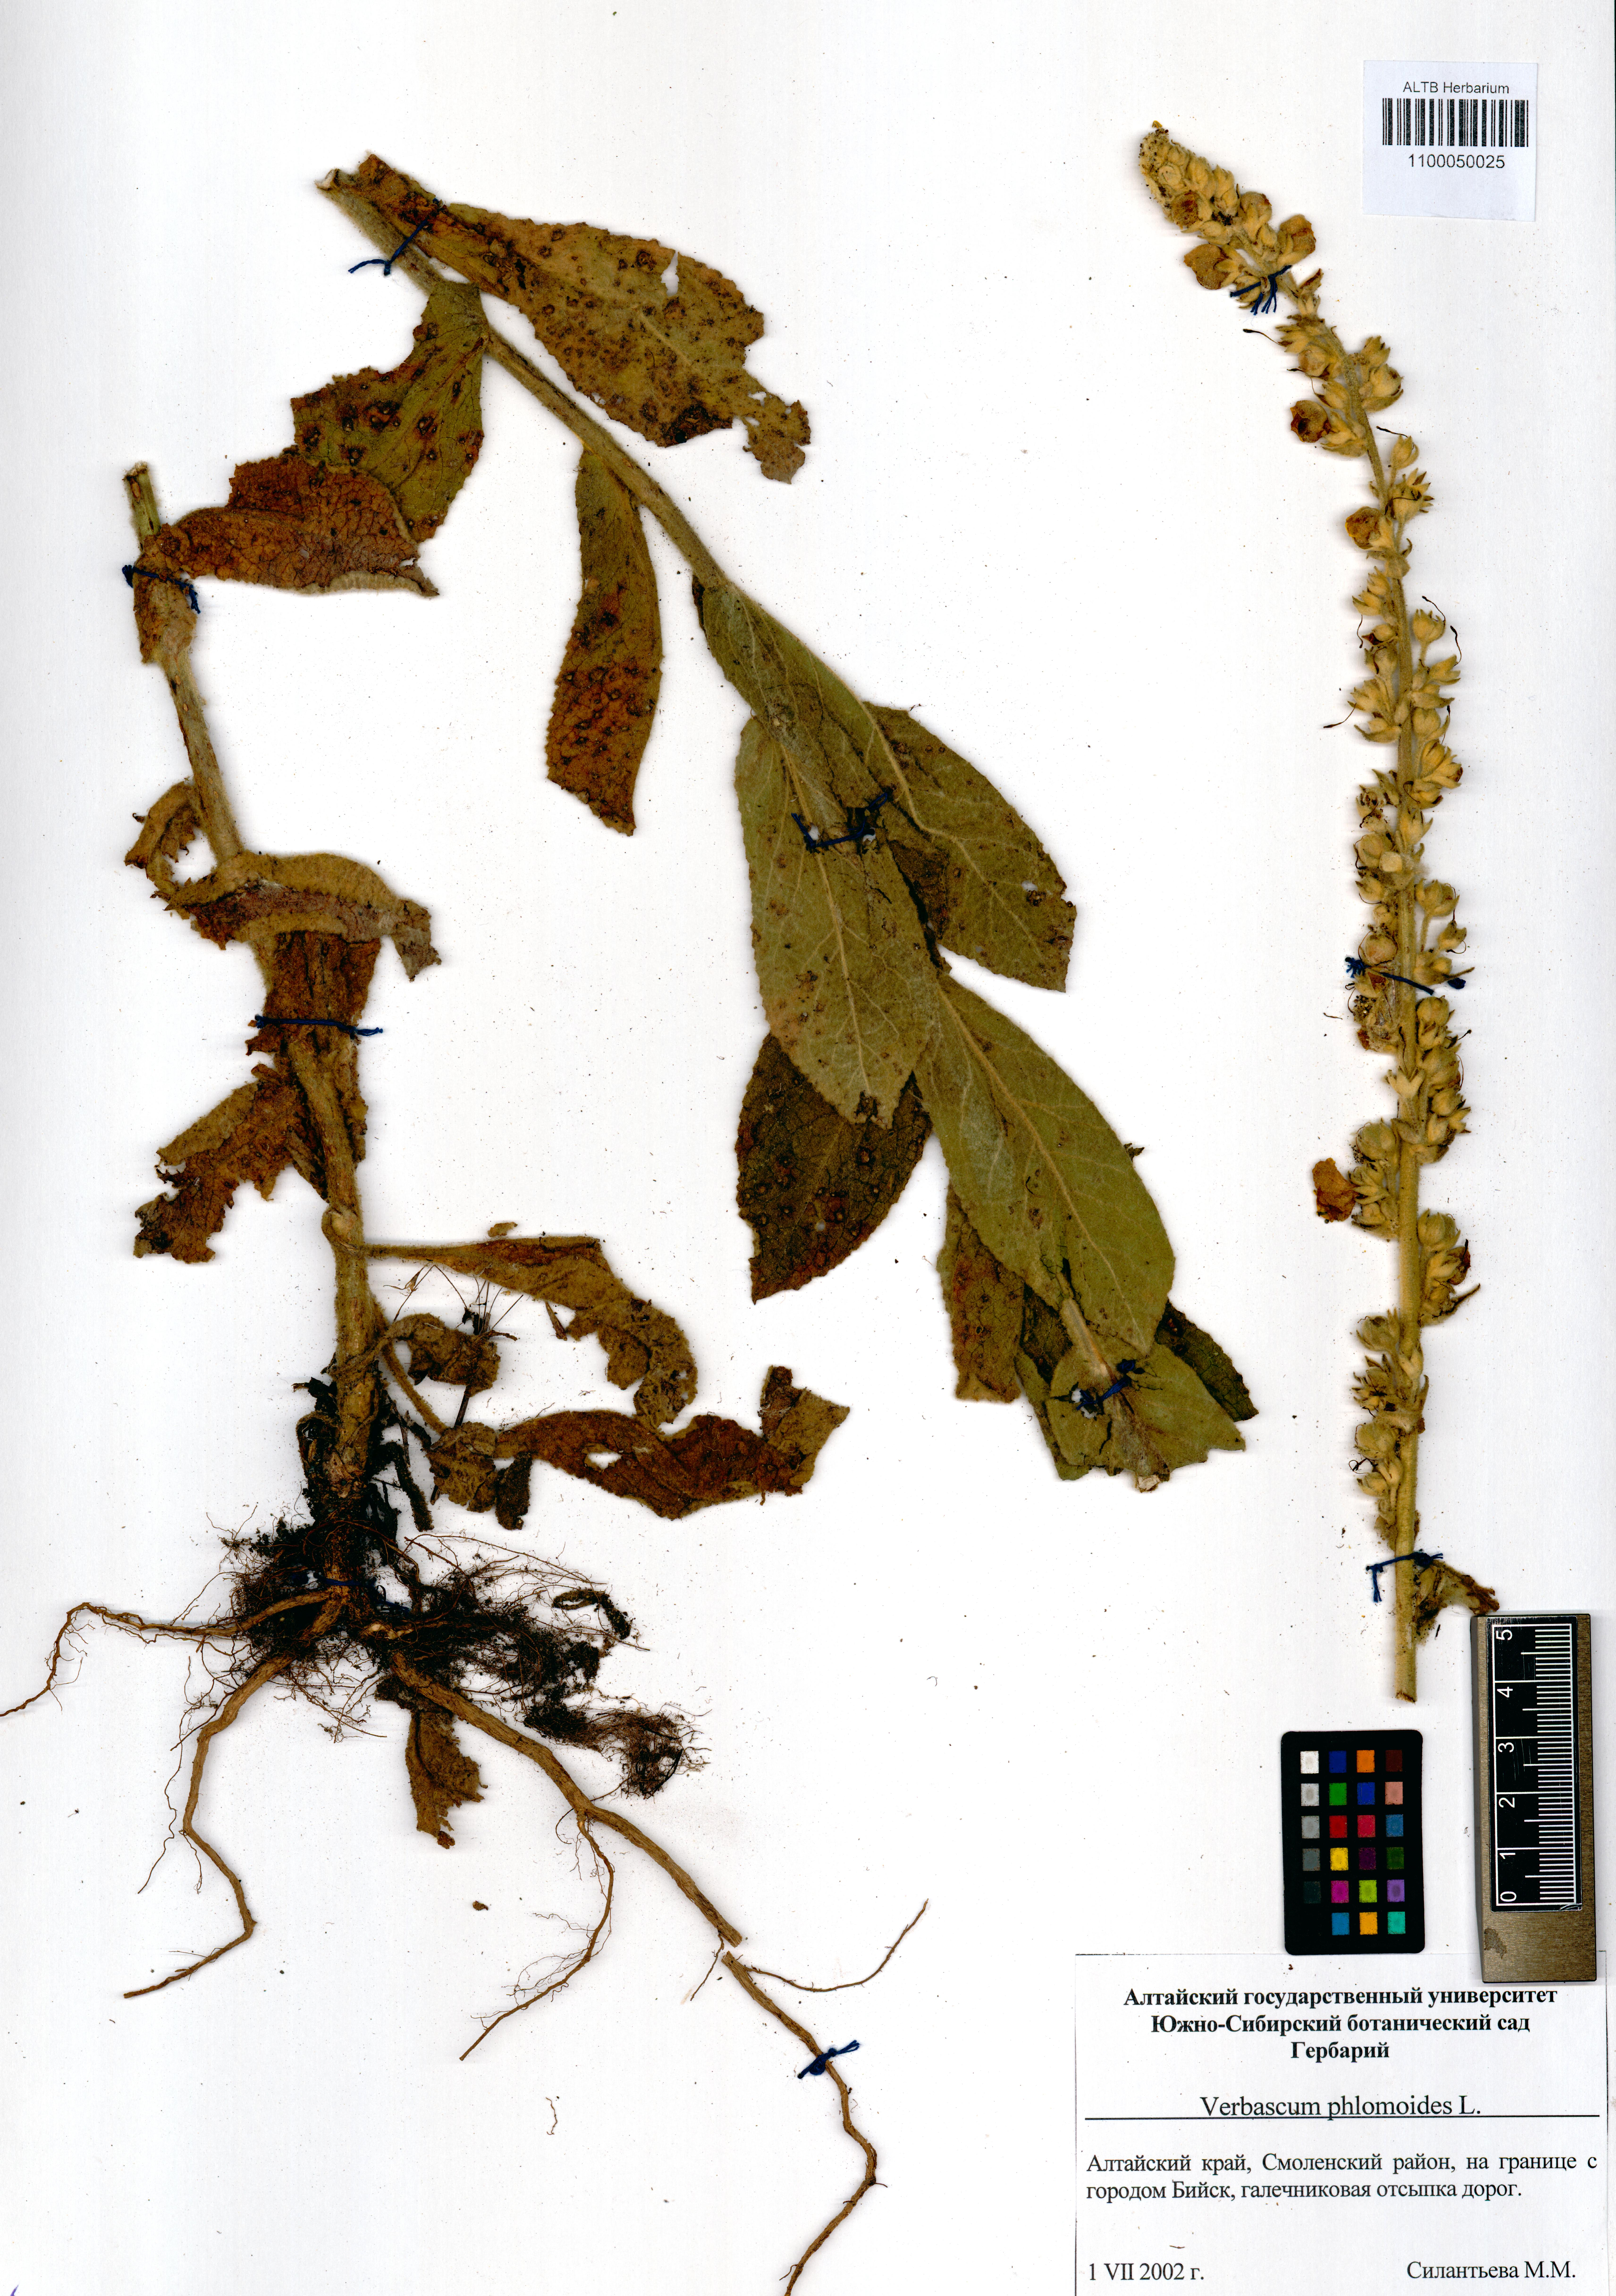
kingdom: Plantae
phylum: Tracheophyta
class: Magnoliopsida
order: Lamiales
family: Scrophulariaceae
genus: Verbascum
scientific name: Verbascum phlomoides
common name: Orange mullein
